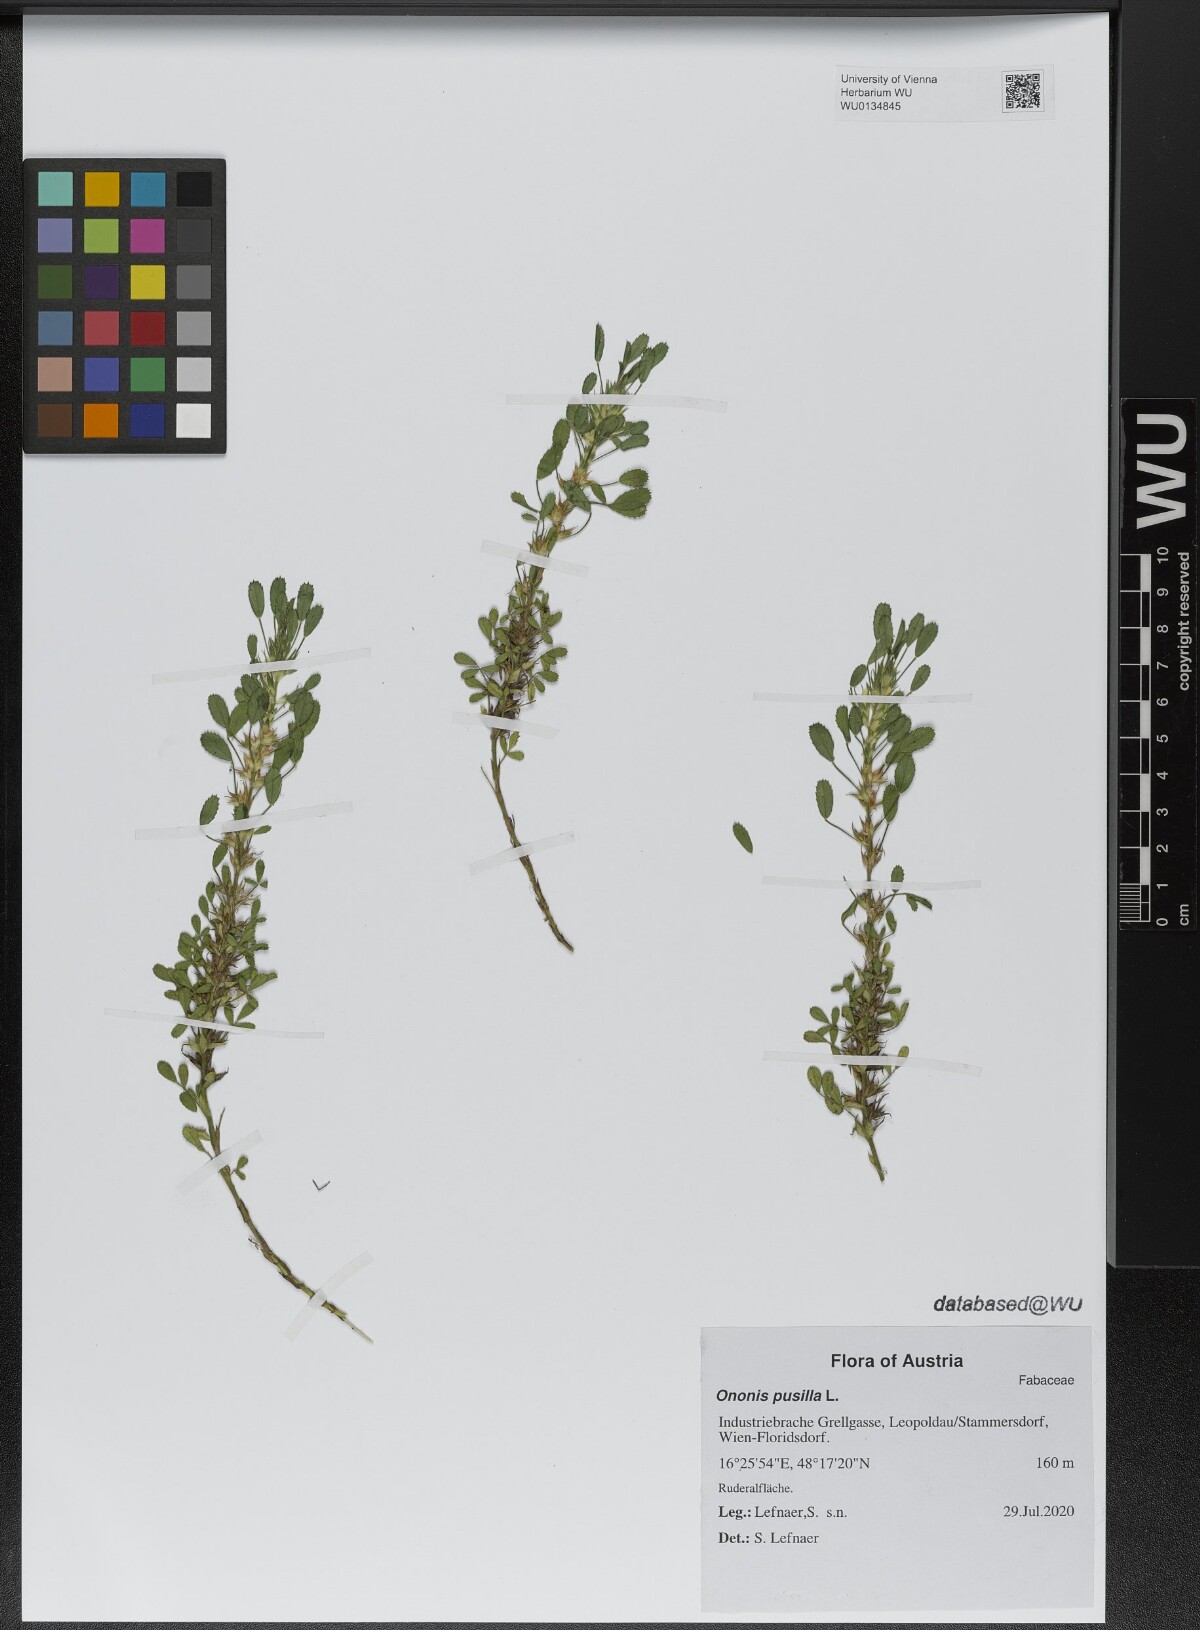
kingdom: Plantae
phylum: Tracheophyta
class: Magnoliopsida
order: Fabales
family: Fabaceae
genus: Ononis
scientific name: Ononis pusilla
